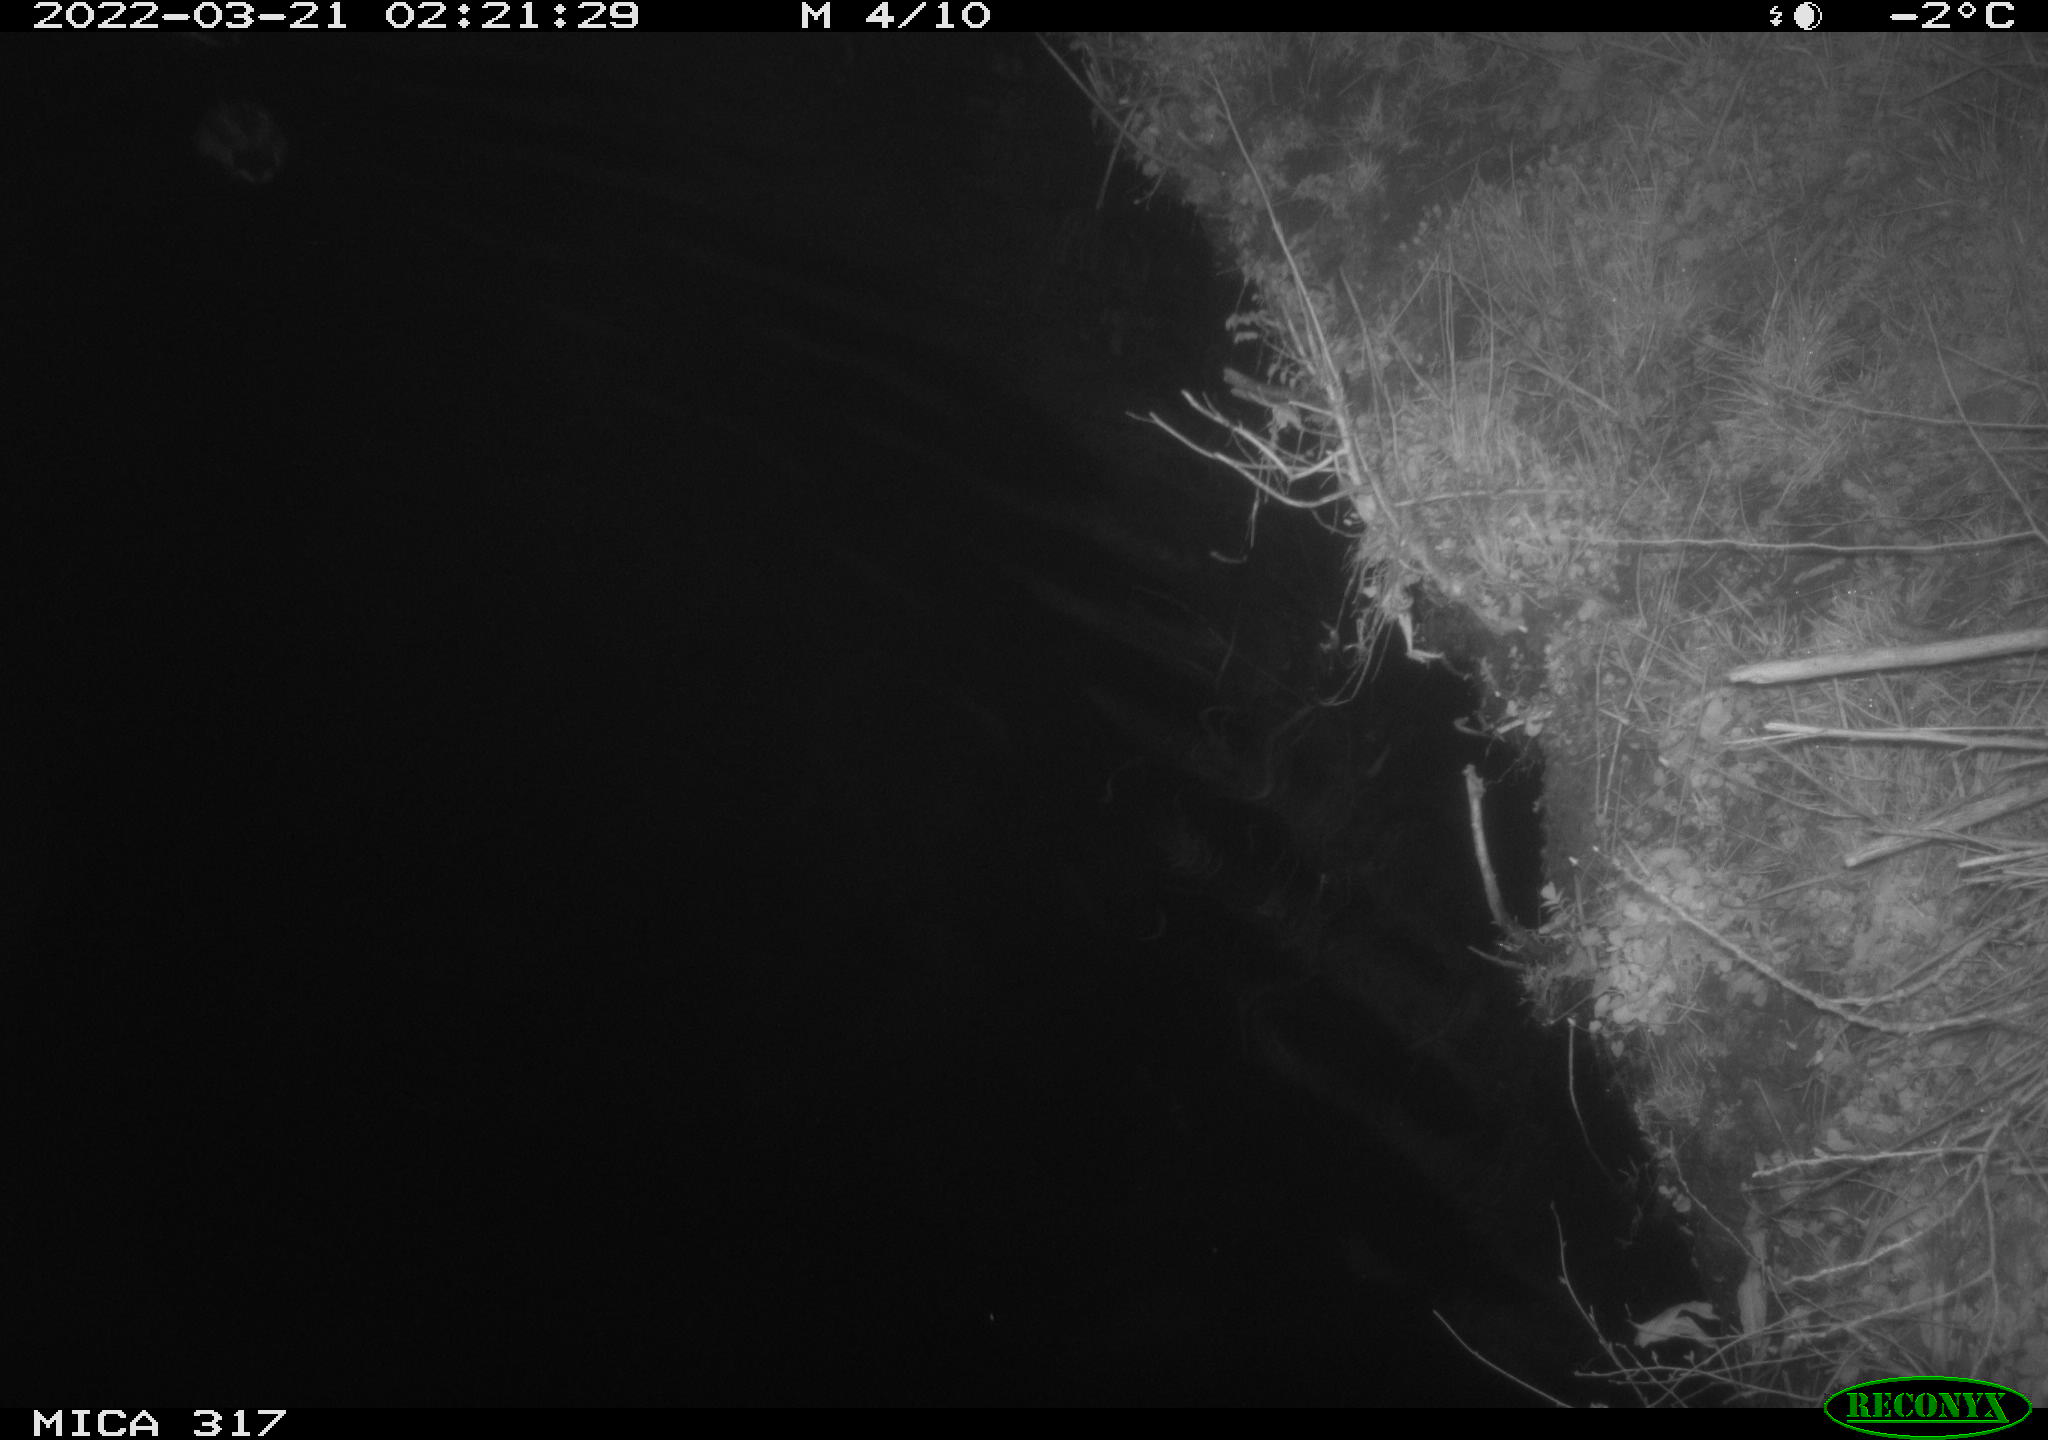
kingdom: Animalia
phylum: Chordata
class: Aves
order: Anseriformes
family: Anatidae
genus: Anas
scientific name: Anas platyrhynchos
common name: Mallard
